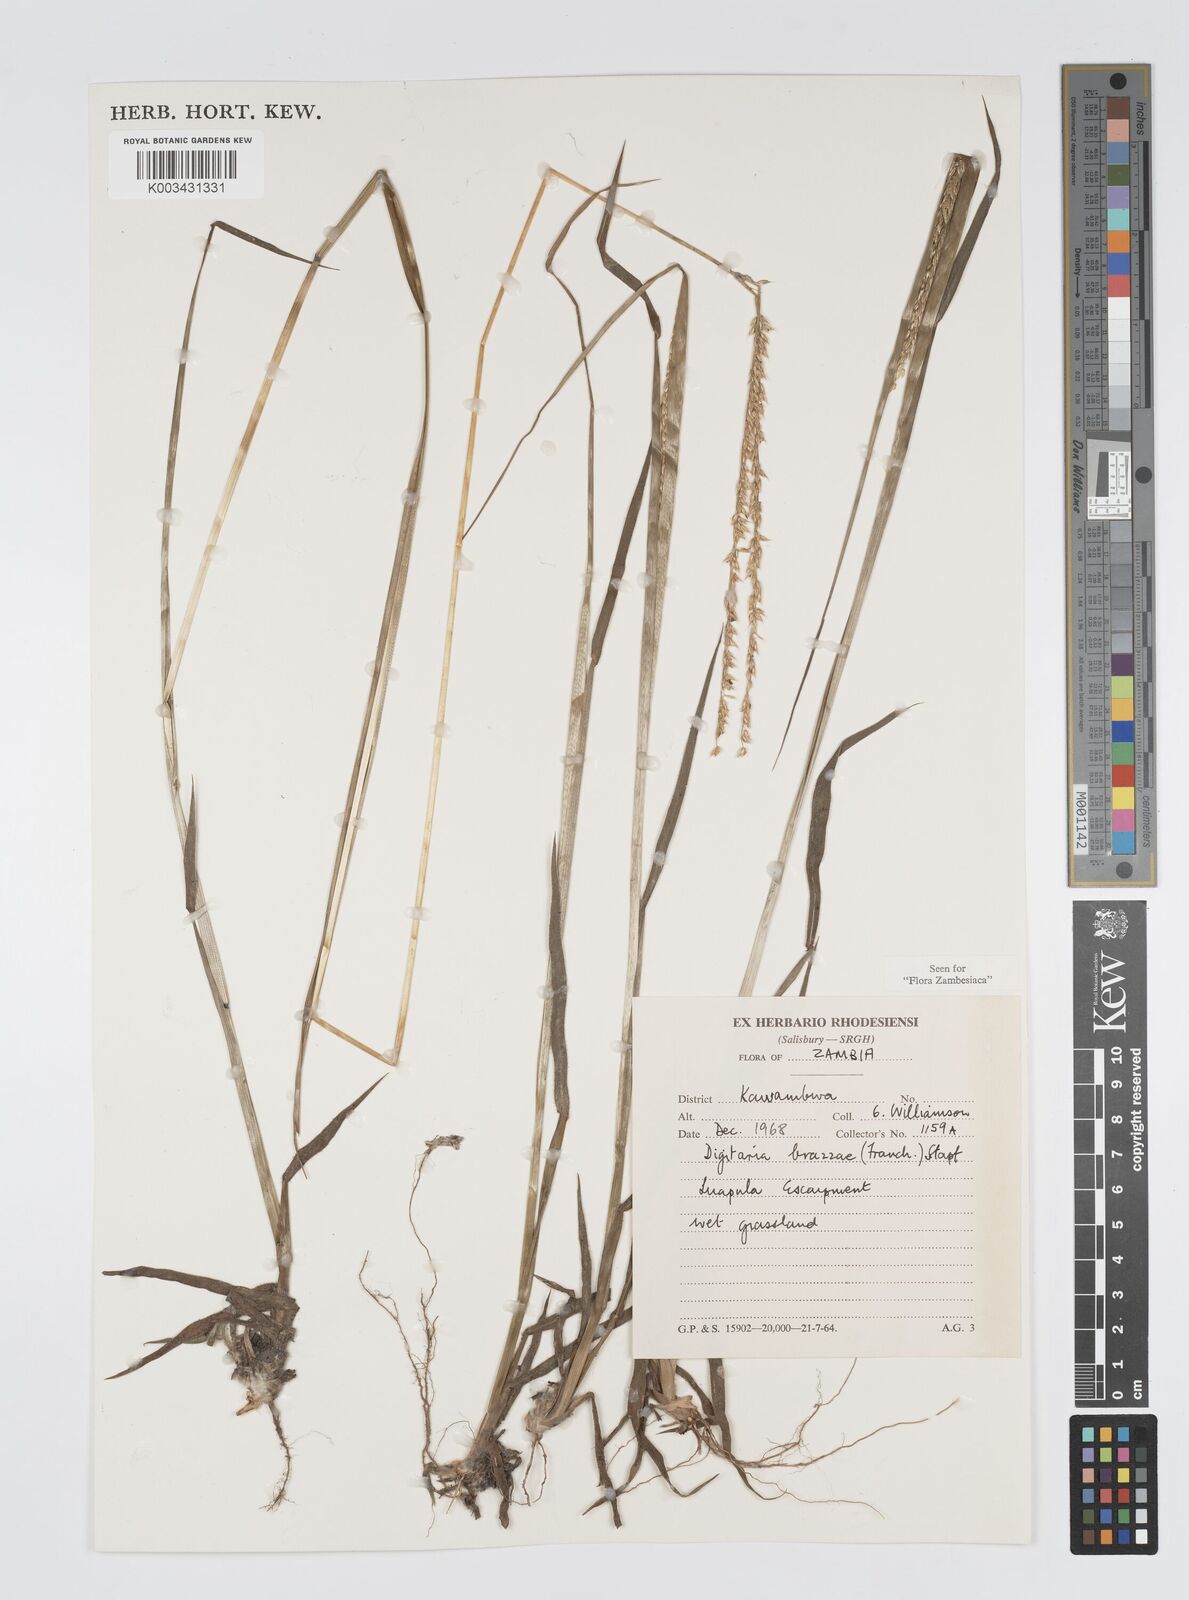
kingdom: Plantae
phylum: Tracheophyta
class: Liliopsida
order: Poales
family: Poaceae
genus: Digitaria
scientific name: Digitaria brazzae
